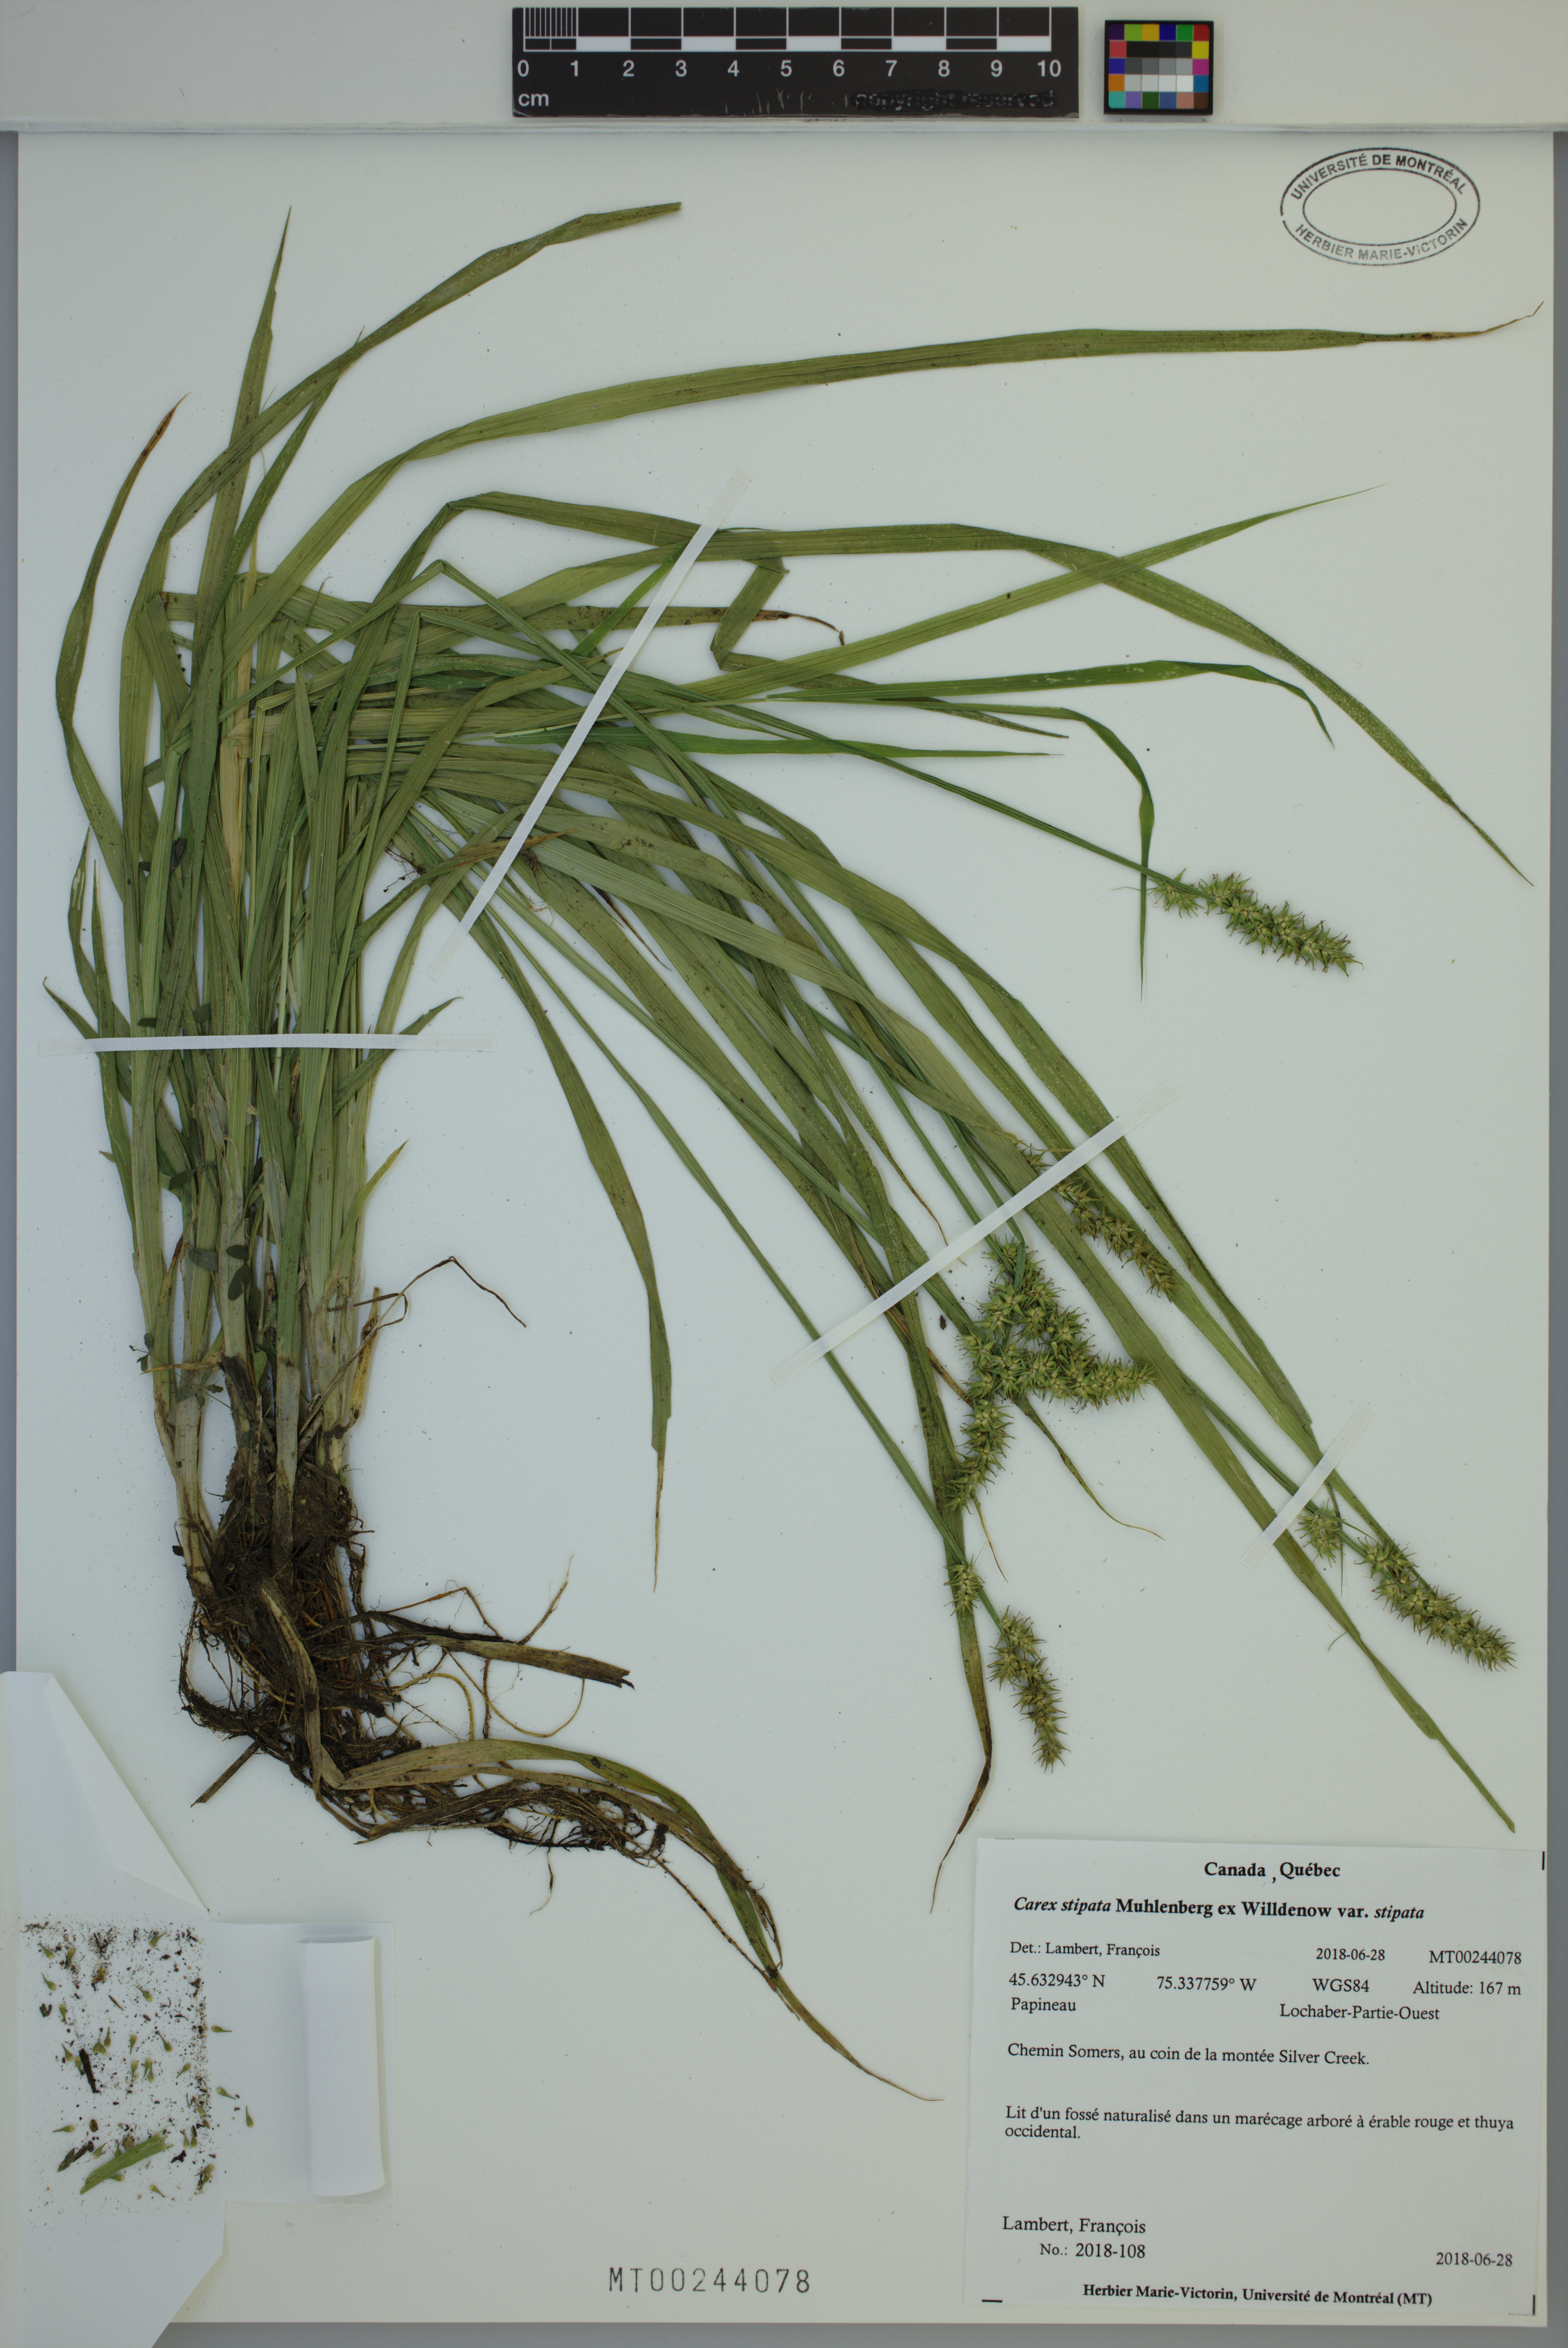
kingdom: Plantae
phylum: Tracheophyta
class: Liliopsida
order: Poales
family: Cyperaceae
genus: Carex
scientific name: Carex stipata
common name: Awl-fruited sedge
